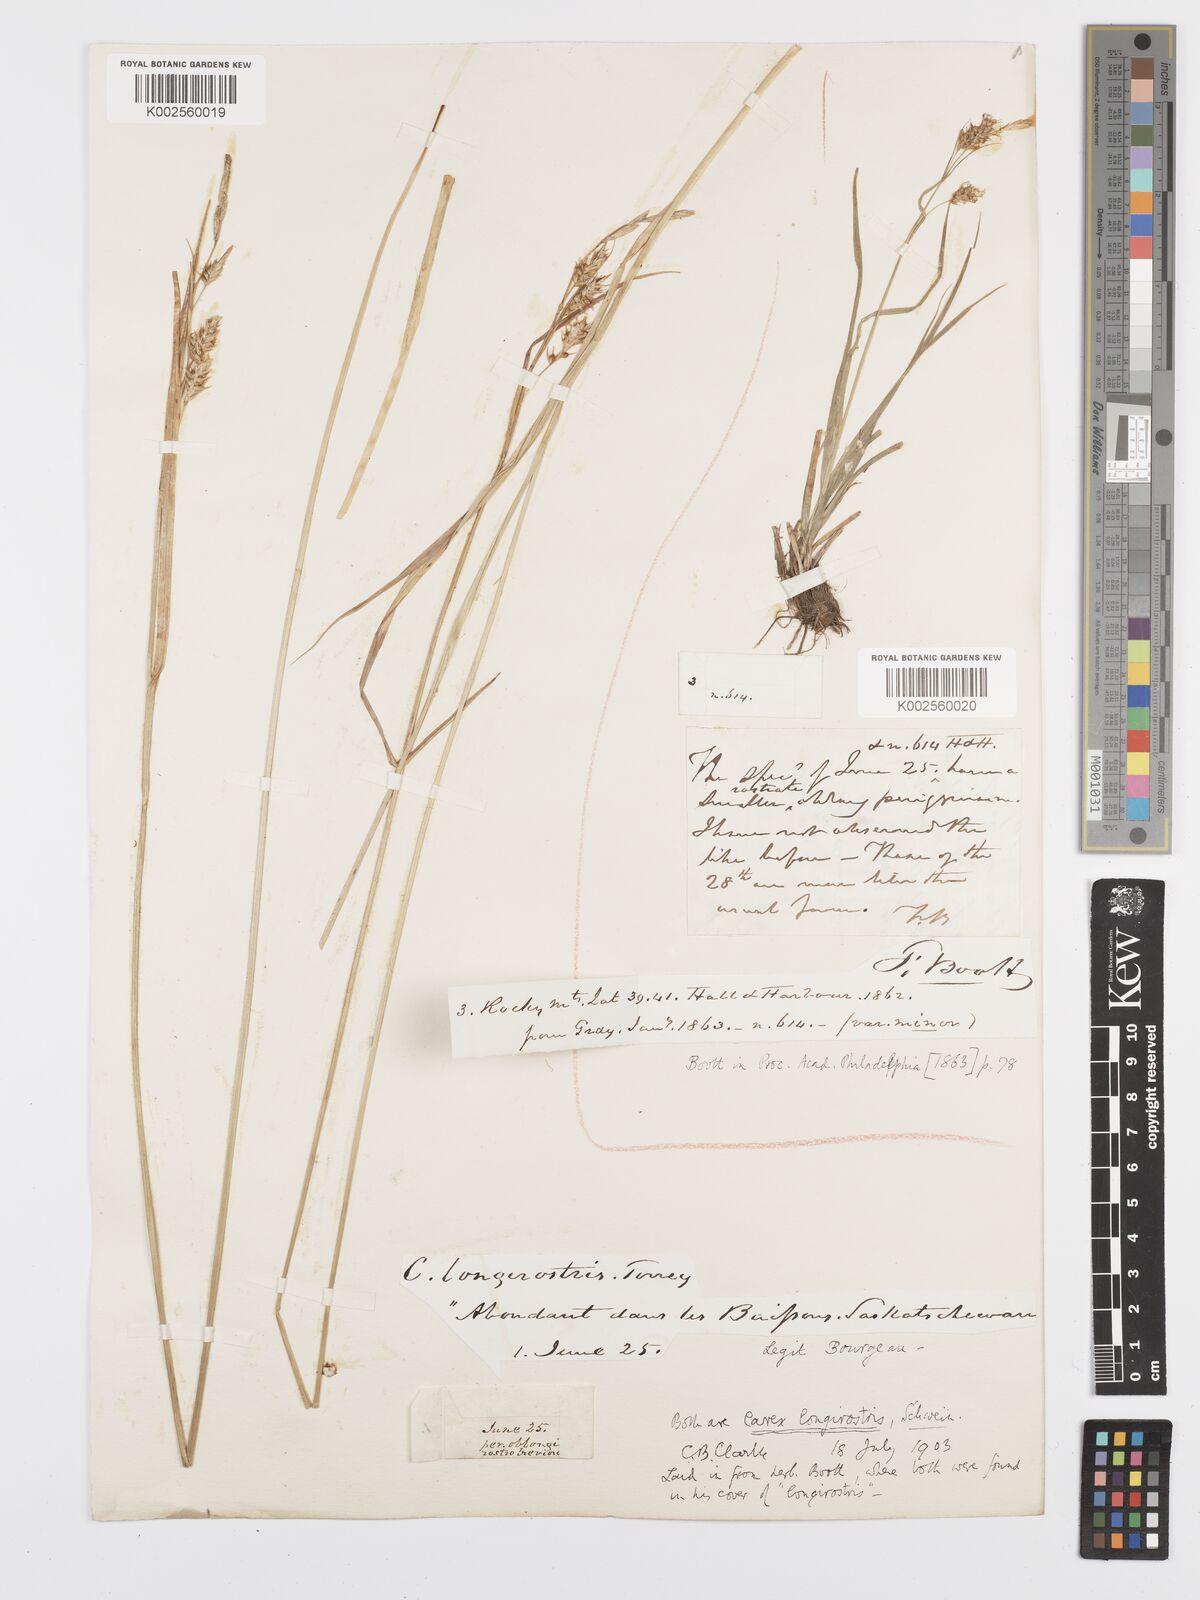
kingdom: Plantae
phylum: Tracheophyta
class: Liliopsida
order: Poales
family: Cyperaceae
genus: Carex
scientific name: Carex sprengelii
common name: Long-beaked sedge
